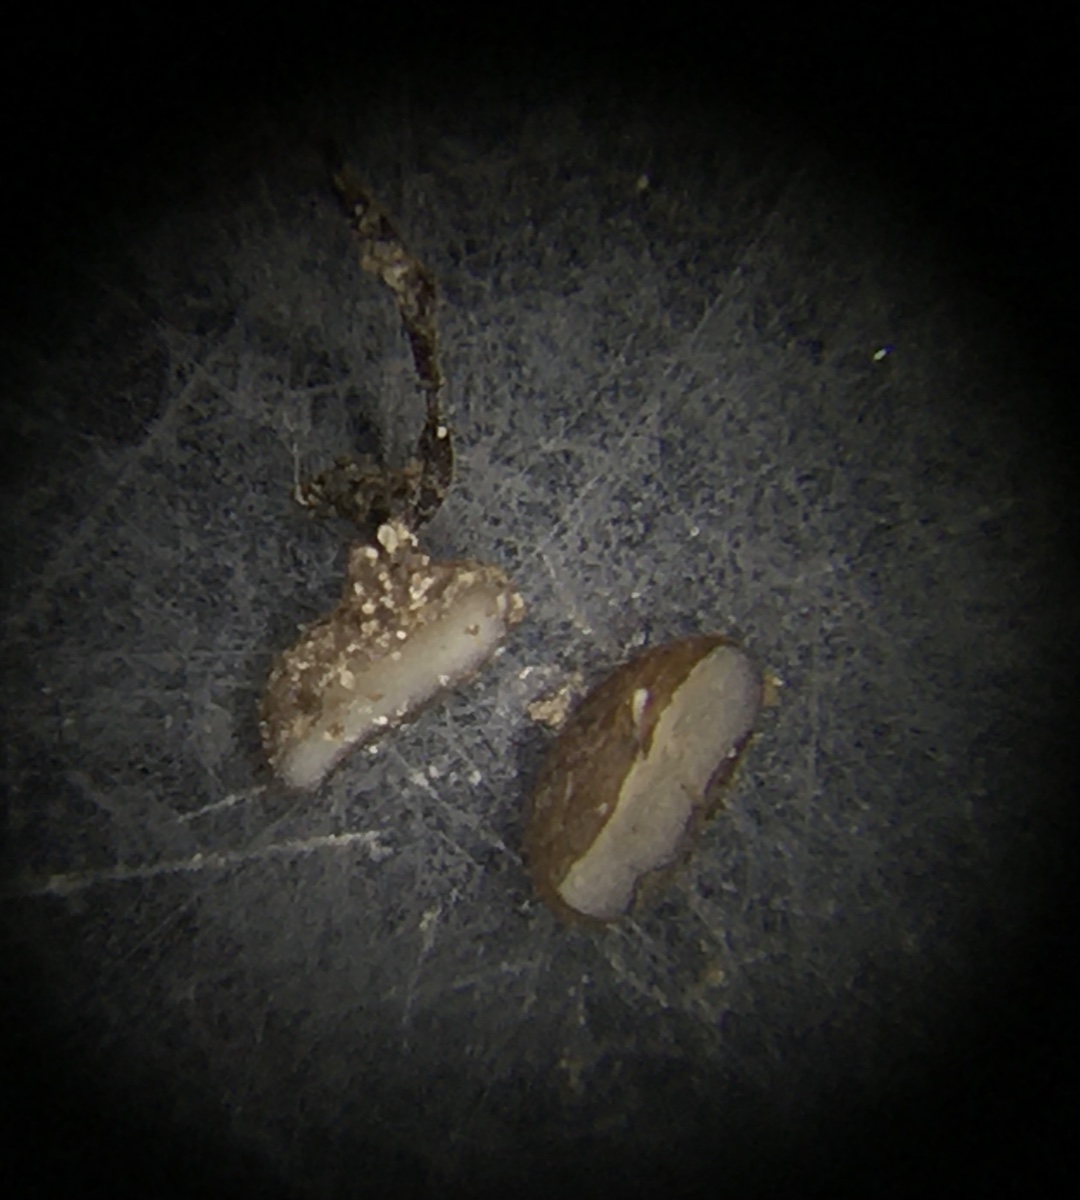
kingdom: Fungi
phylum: Basidiomycota
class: Agaricomycetes
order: Agaricales
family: Typhulaceae
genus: Typhula
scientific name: Typhula erythropus
